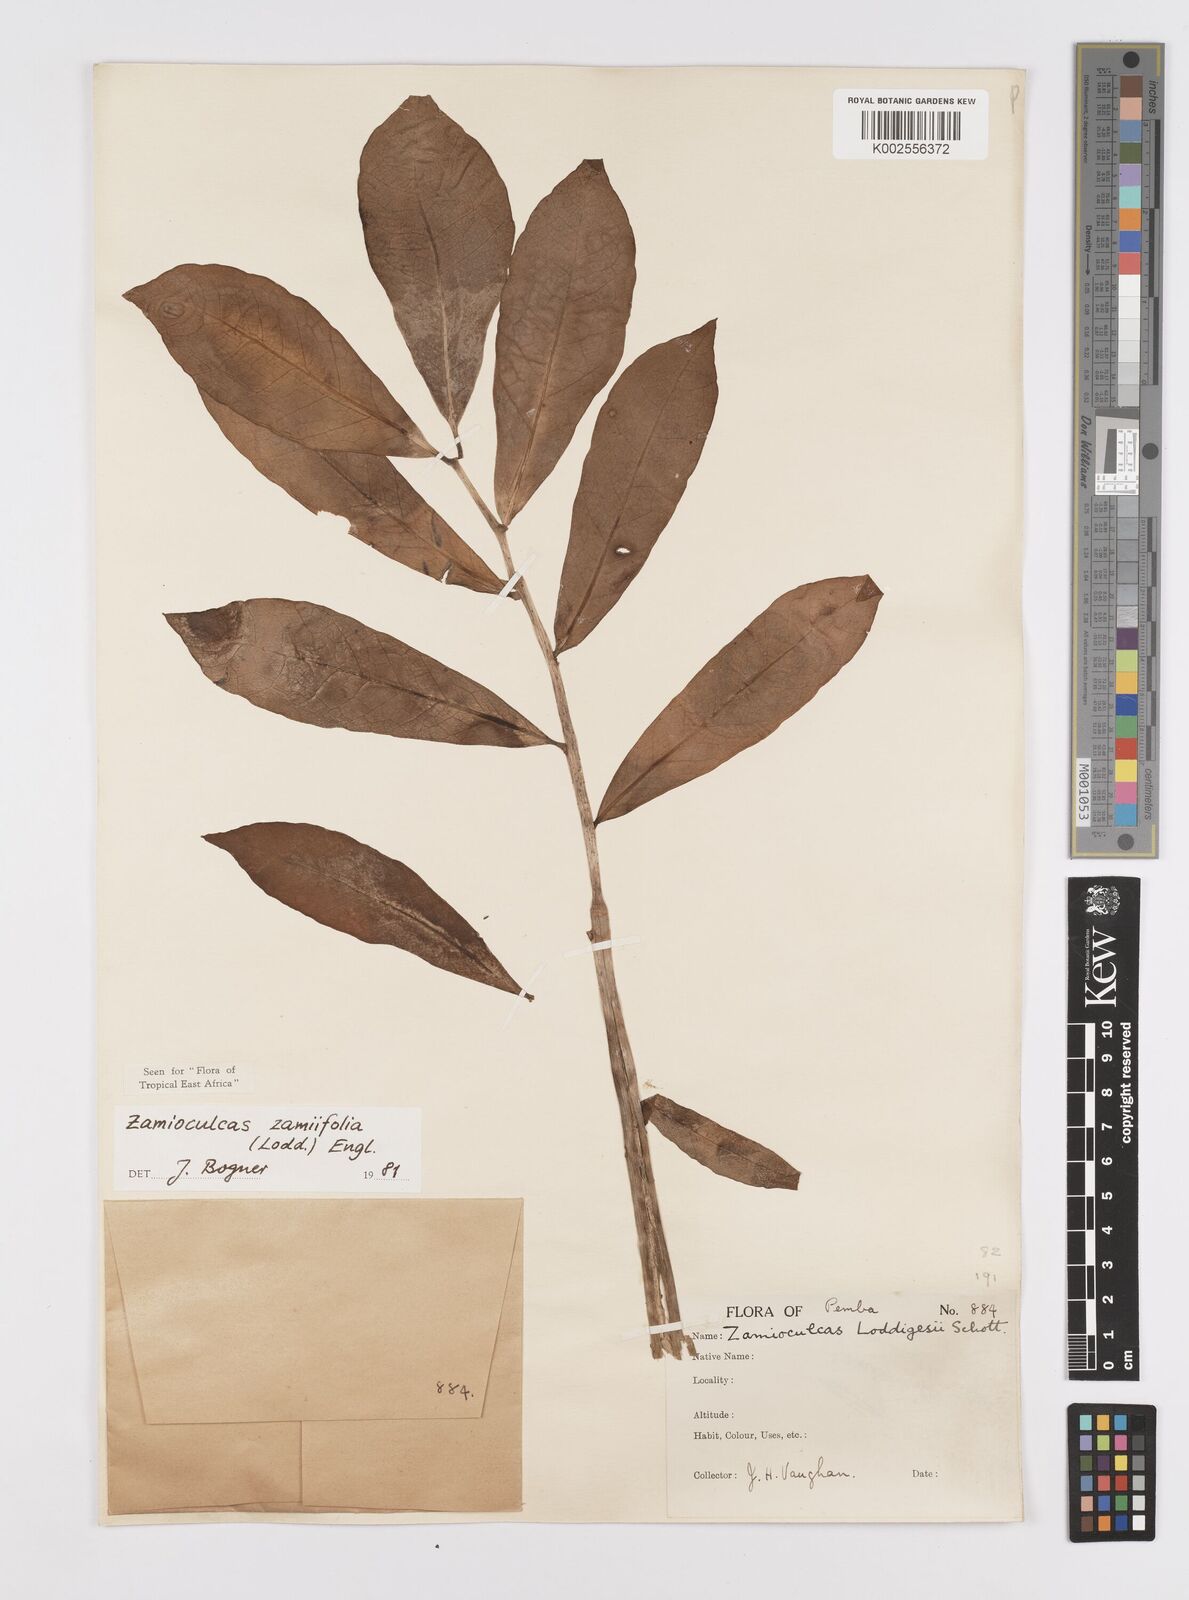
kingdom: Plantae
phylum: Tracheophyta
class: Liliopsida
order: Alismatales
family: Araceae
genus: Zamioculcas
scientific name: Zamioculcas zamiifolia
